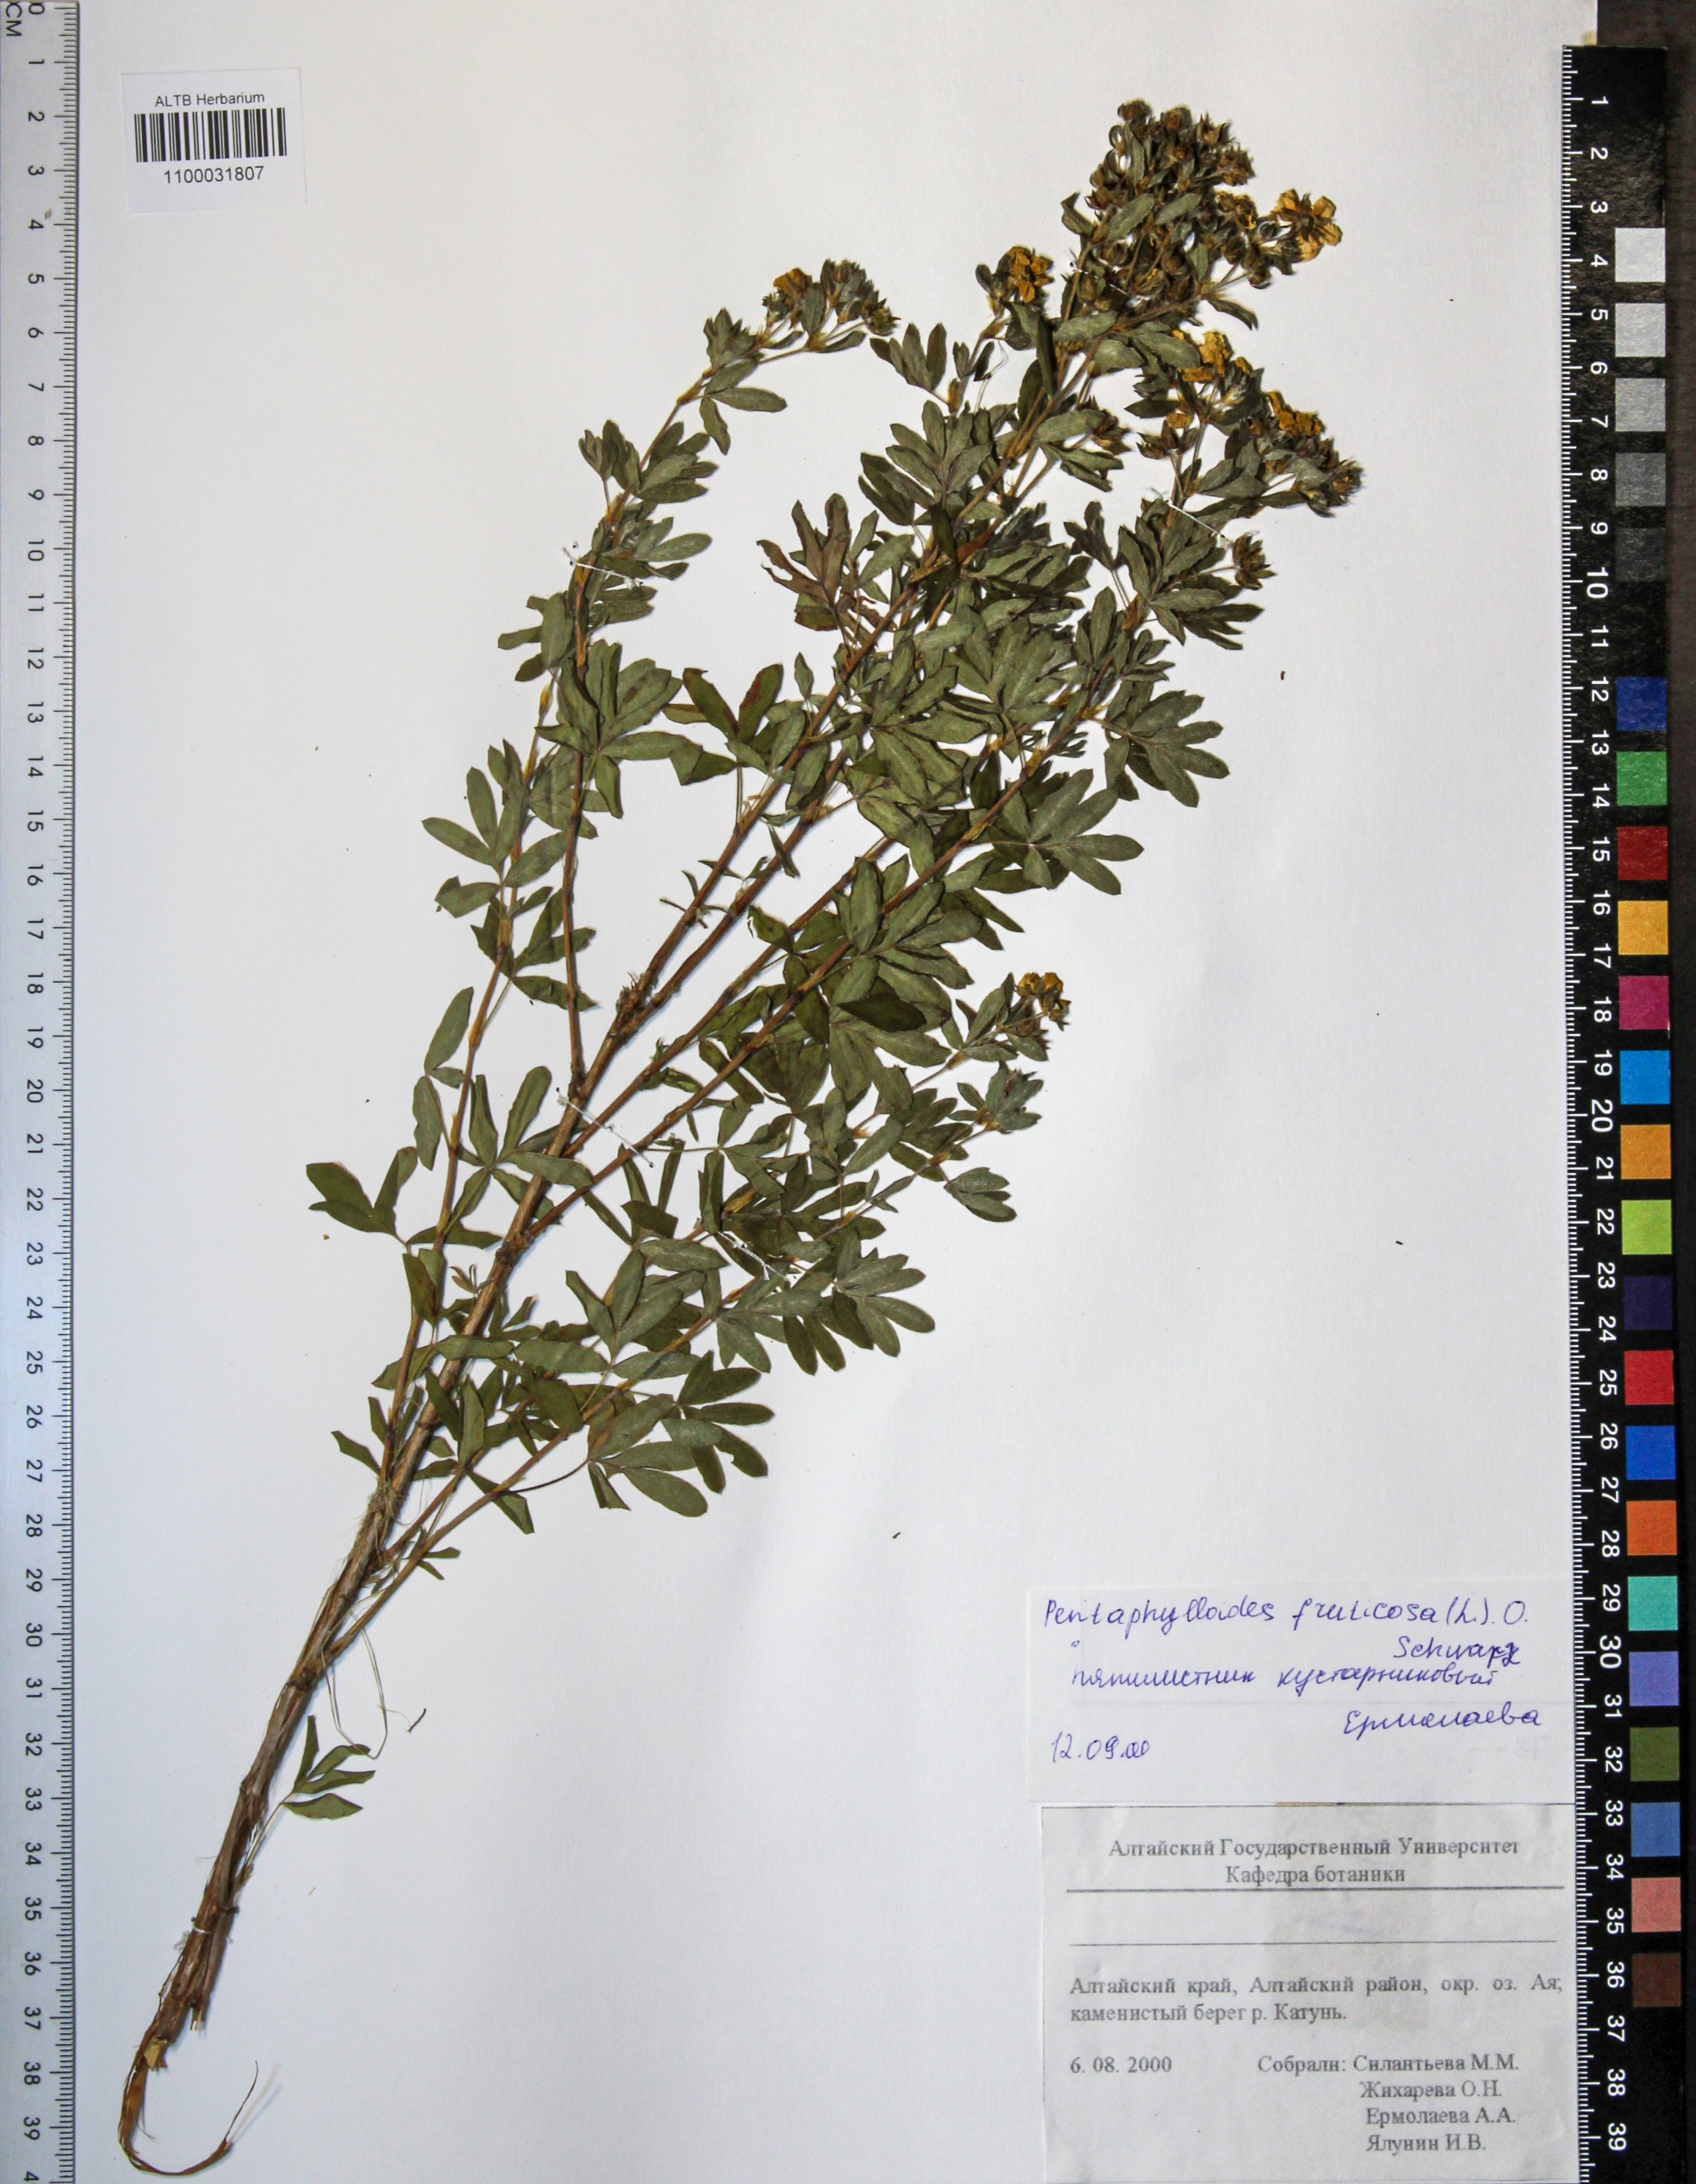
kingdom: Plantae
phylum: Tracheophyta
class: Magnoliopsida
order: Rosales
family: Rosaceae
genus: Dasiphora
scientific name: Dasiphora fruticosa
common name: Shrubby cinquefoil
